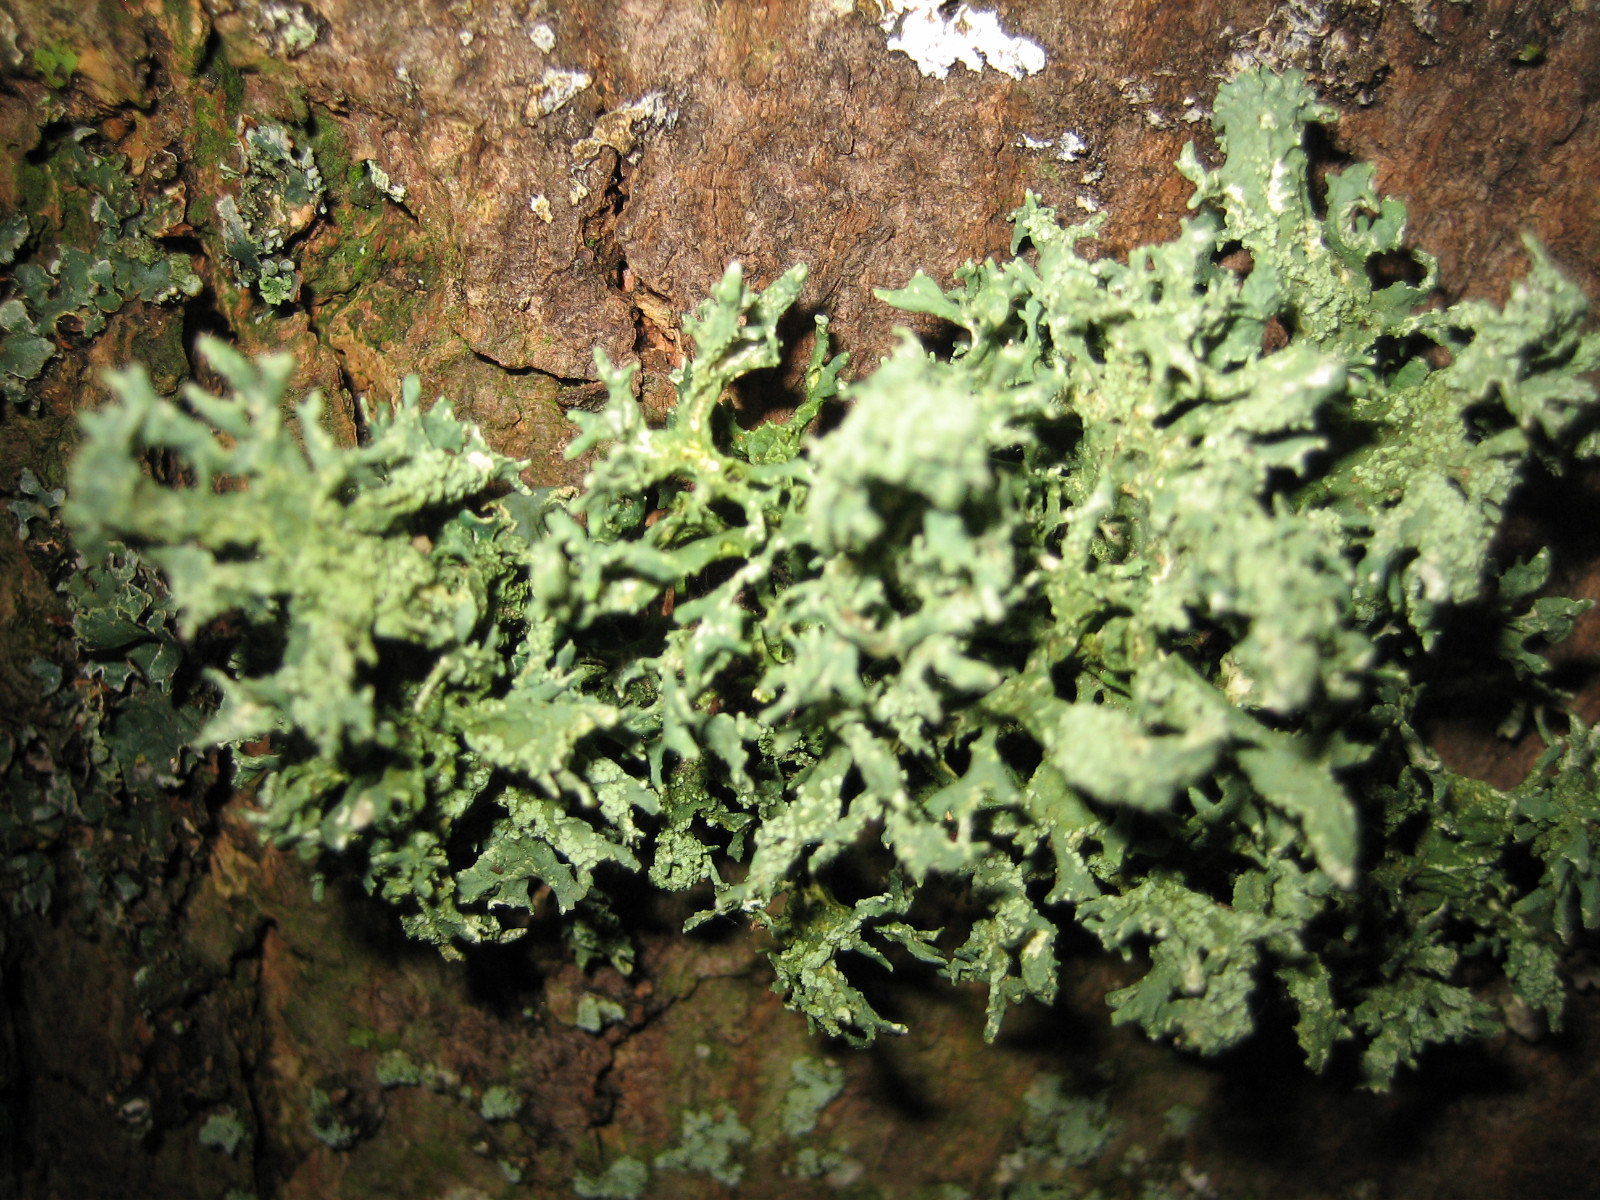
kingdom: Fungi
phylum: Ascomycota
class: Lecanoromycetes
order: Lecanorales
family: Parmeliaceae
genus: Evernia
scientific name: Evernia prunastri
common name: almindelig slåenlav
